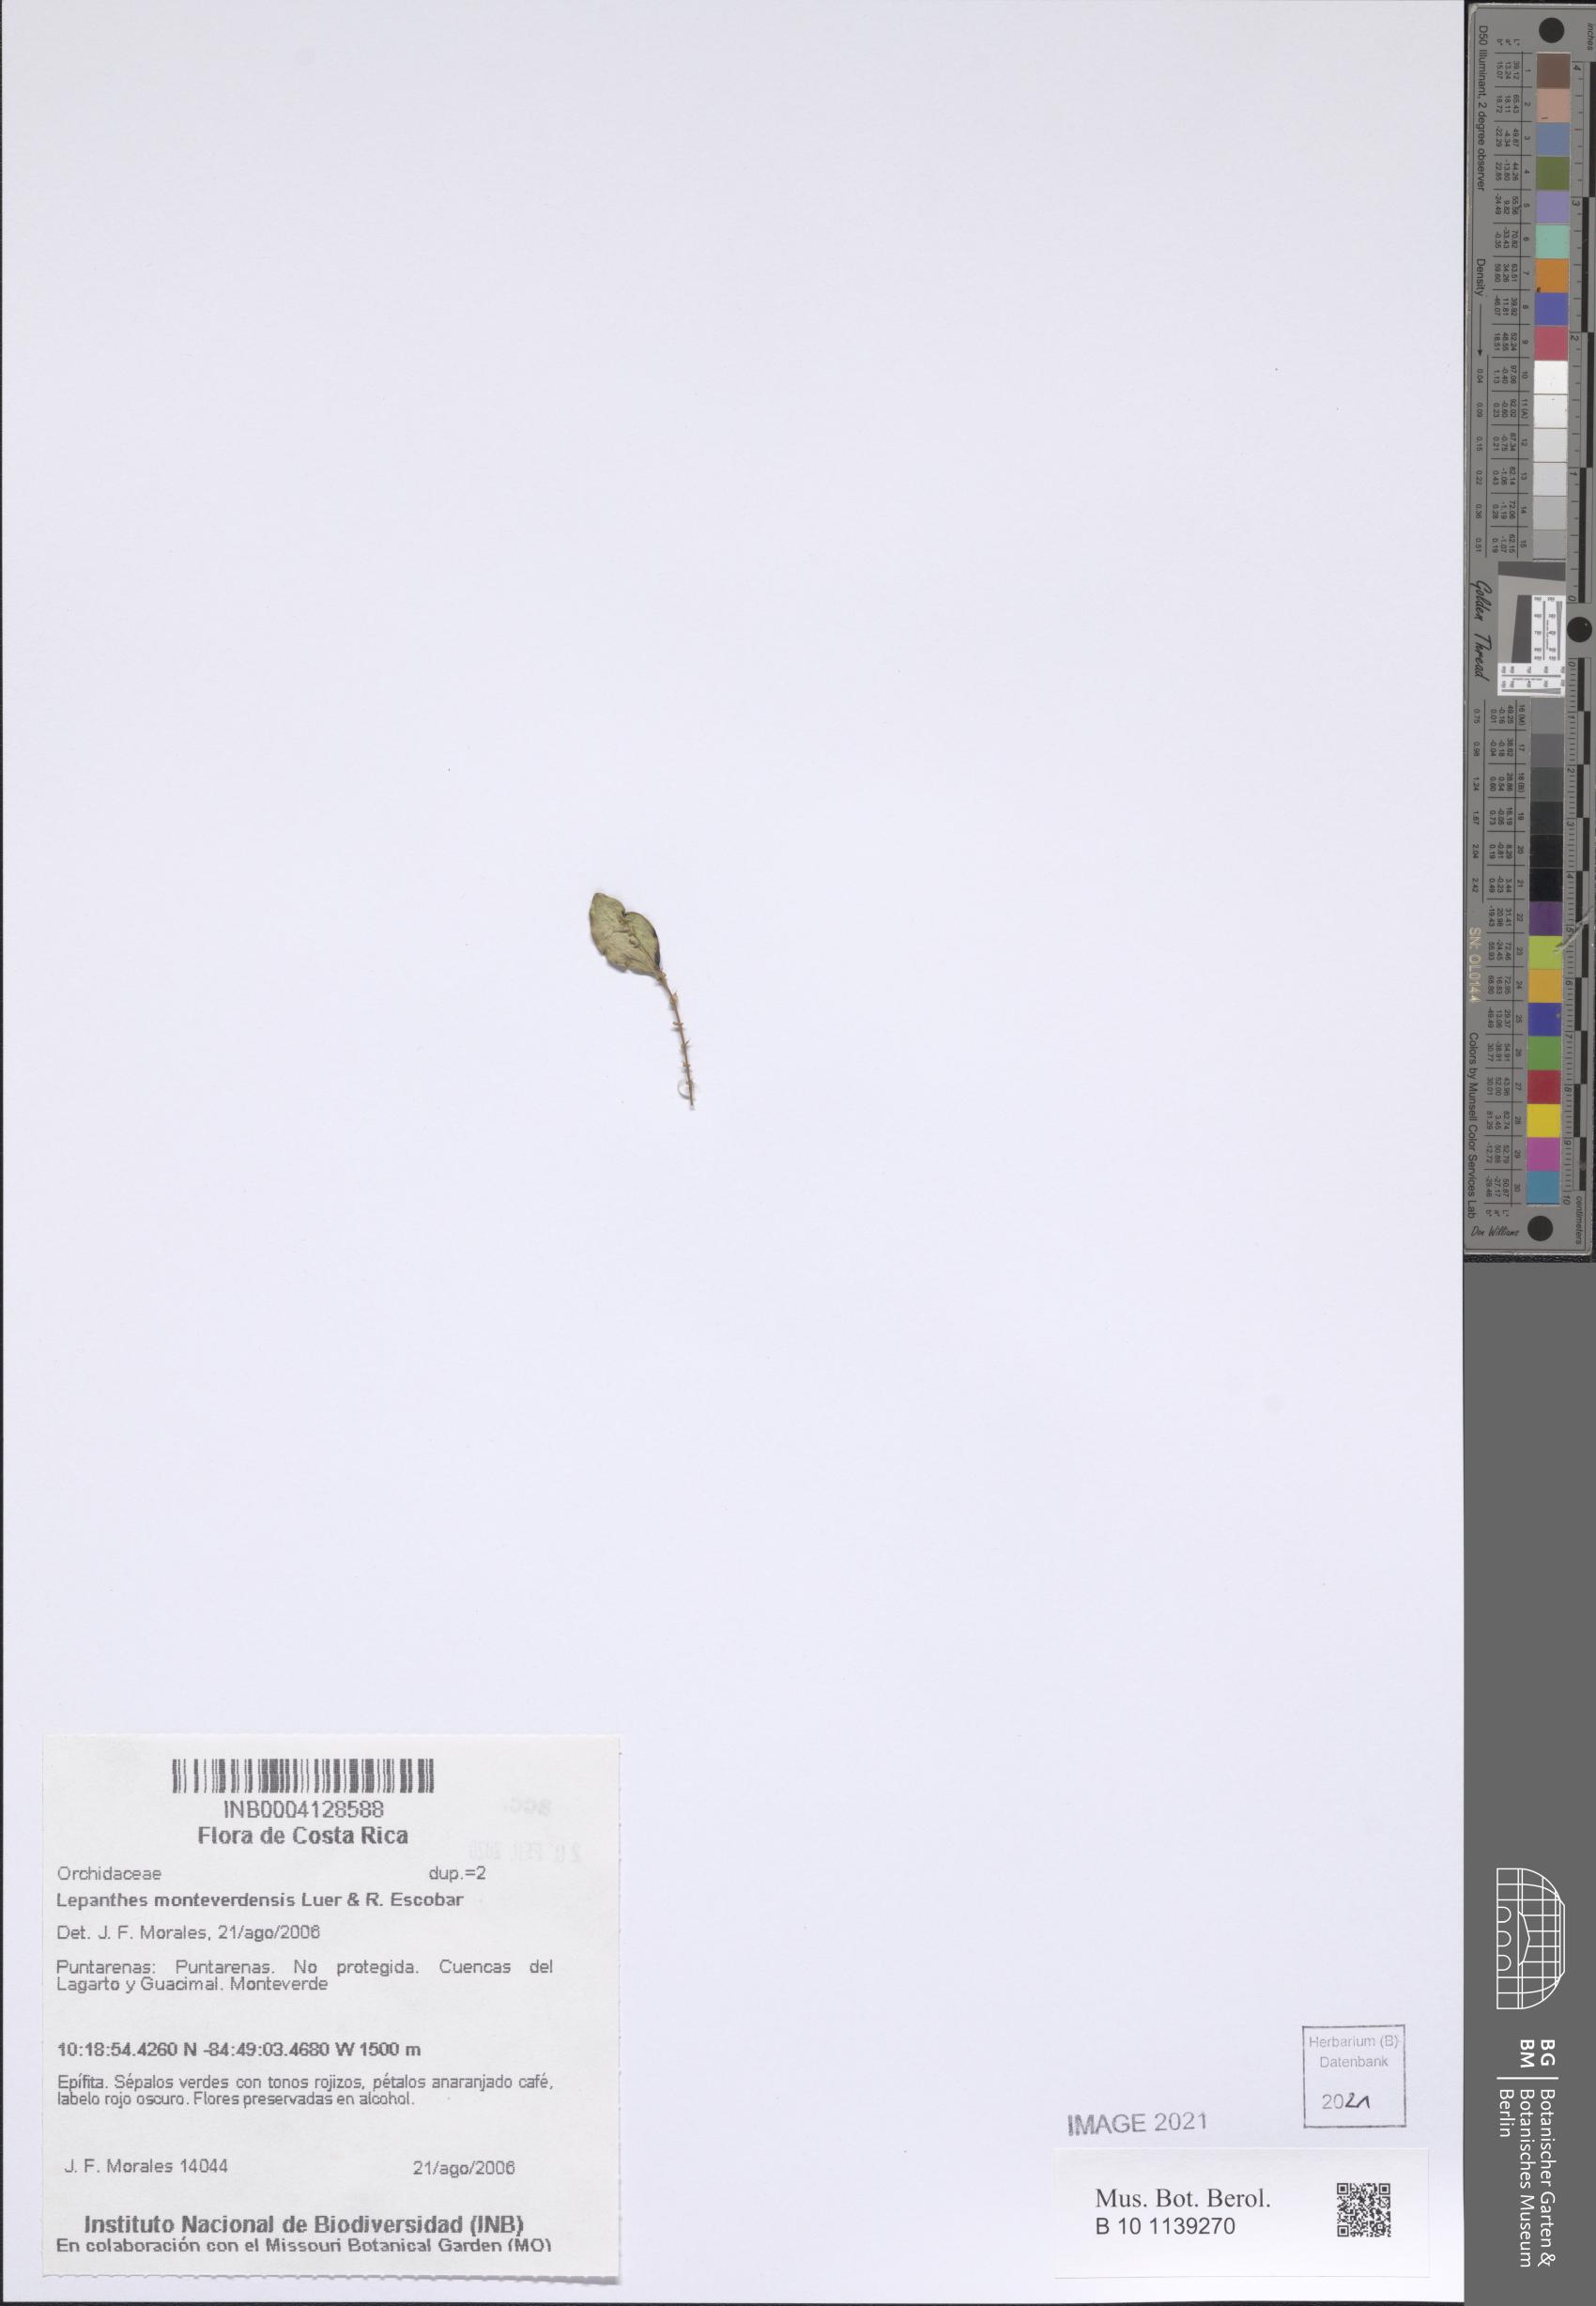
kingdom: Plantae
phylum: Tracheophyta
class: Liliopsida
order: Asparagales
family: Orchidaceae
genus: Lepanthes
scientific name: Lepanthes monteverdensis
